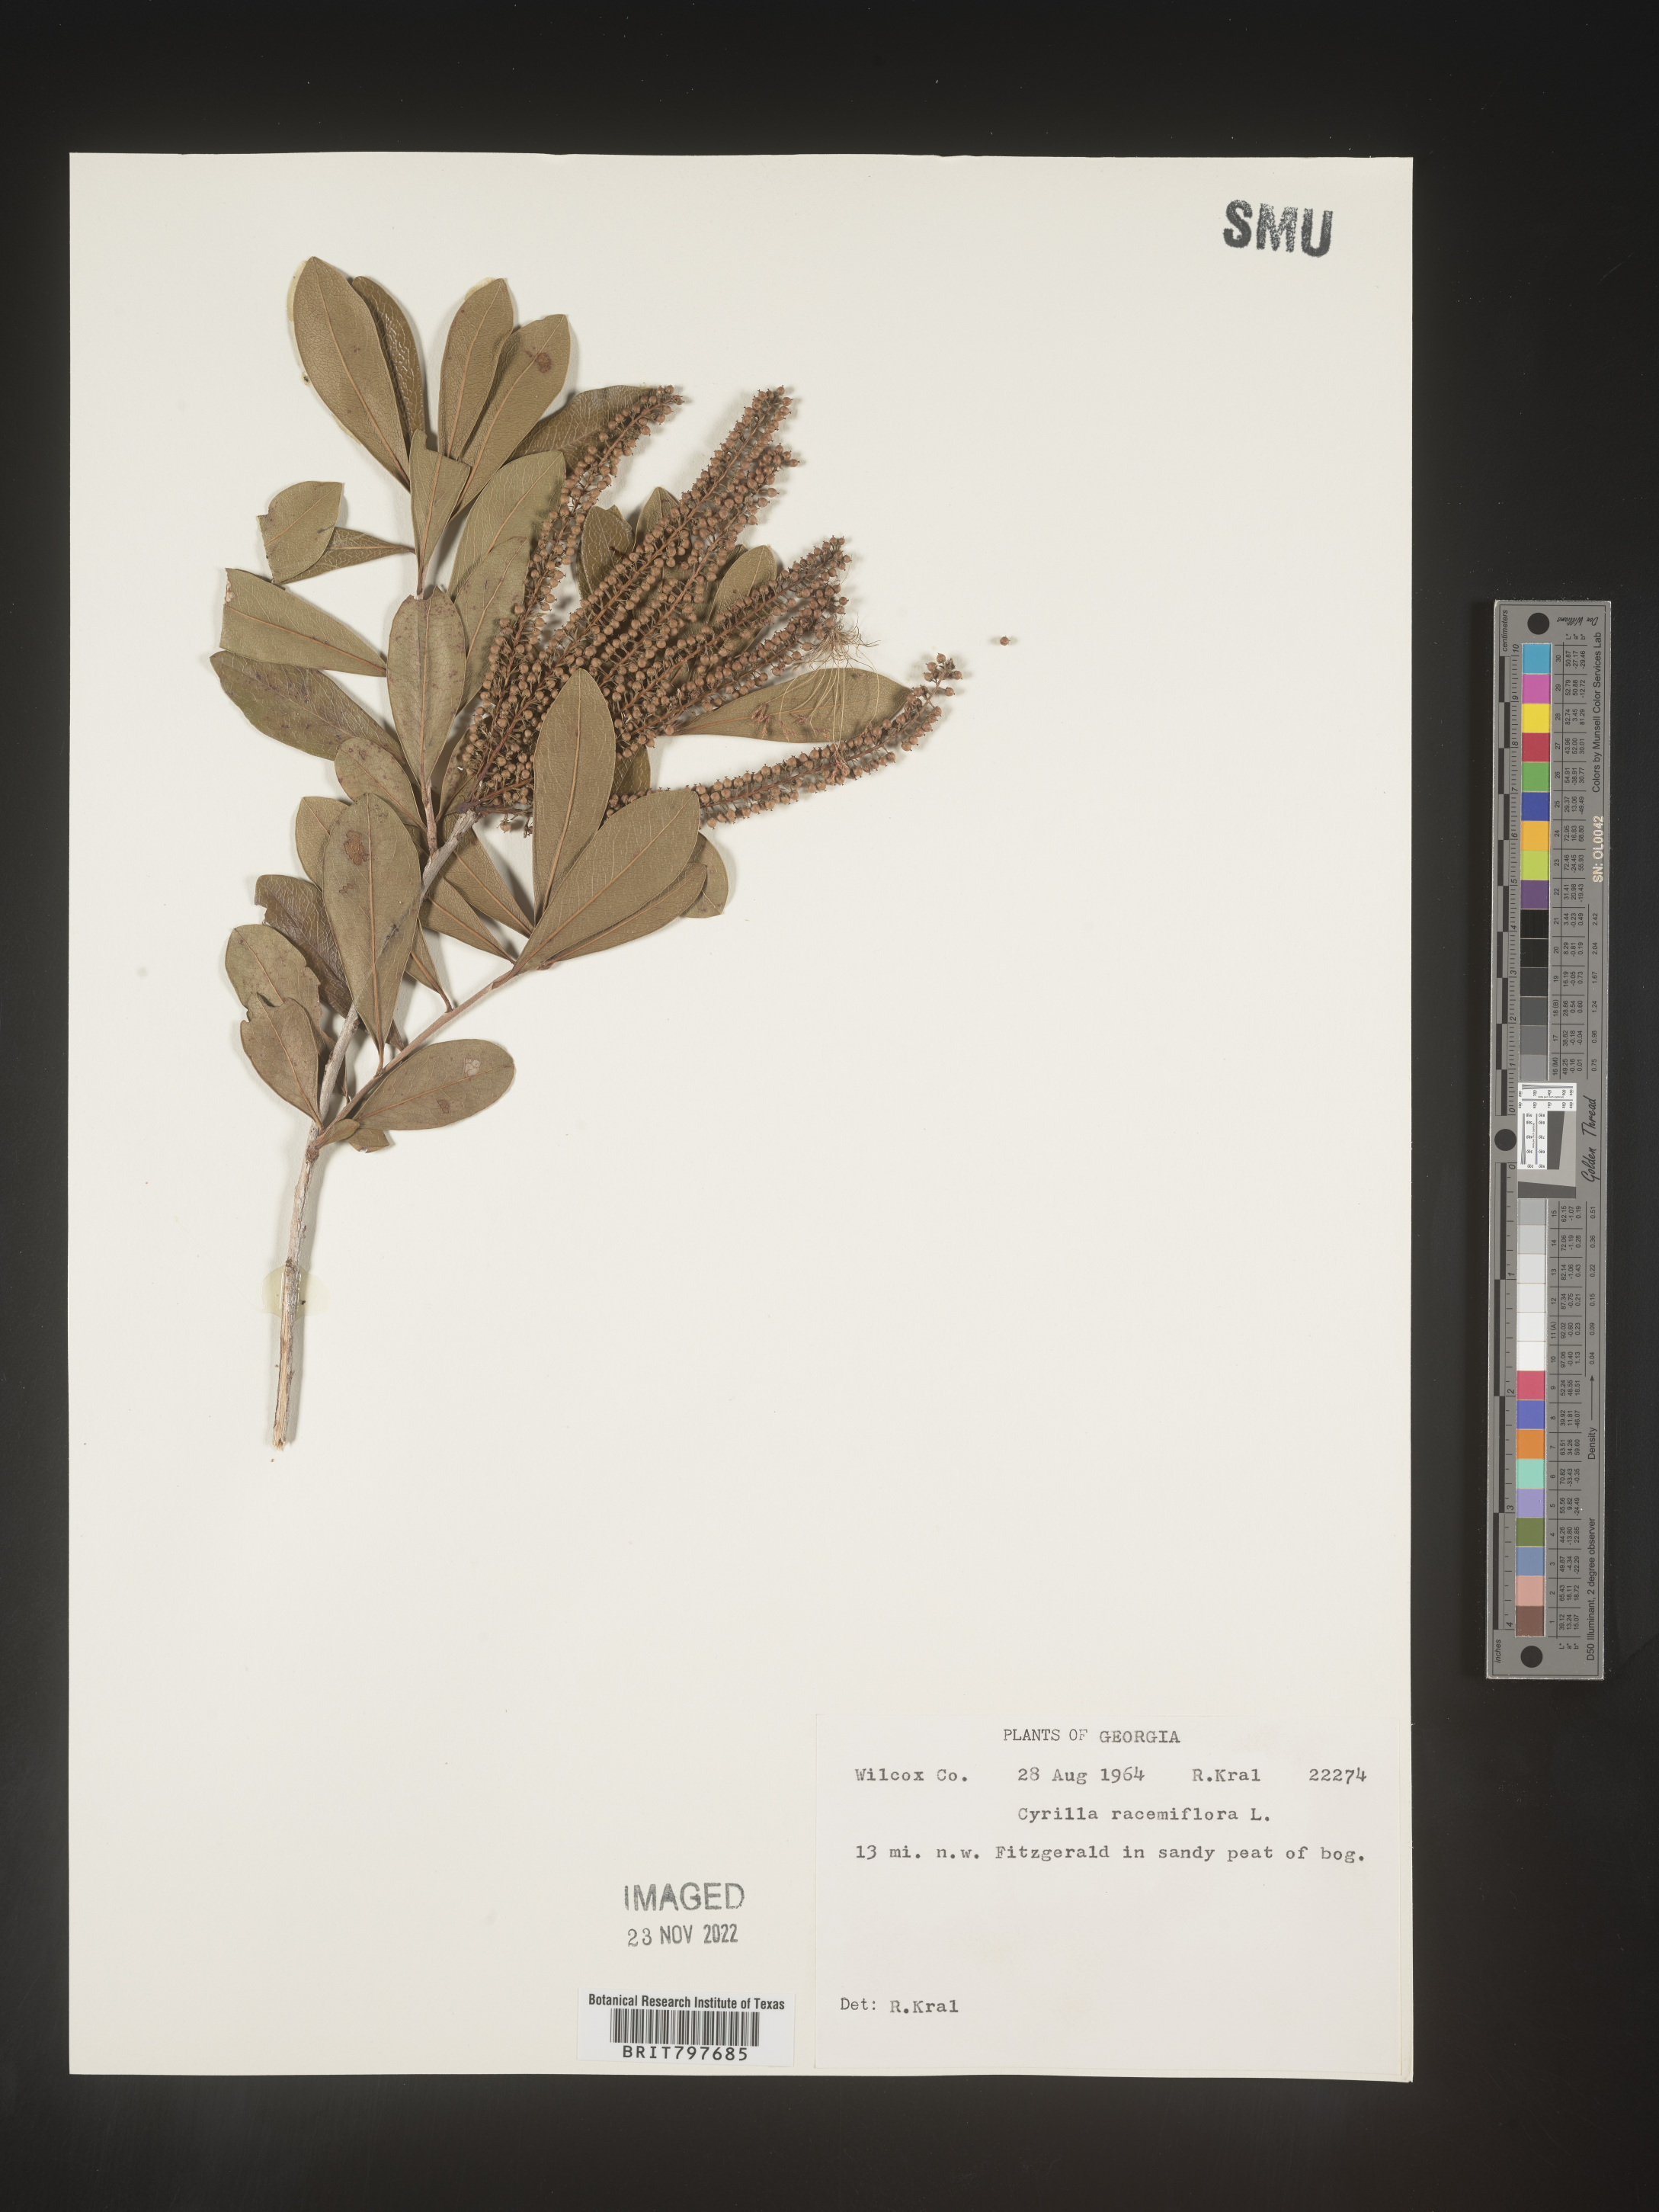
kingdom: Plantae
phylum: Tracheophyta
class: Magnoliopsida
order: Ericales
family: Cyrillaceae
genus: Cyrilla
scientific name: Cyrilla racemiflora
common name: Black titi
